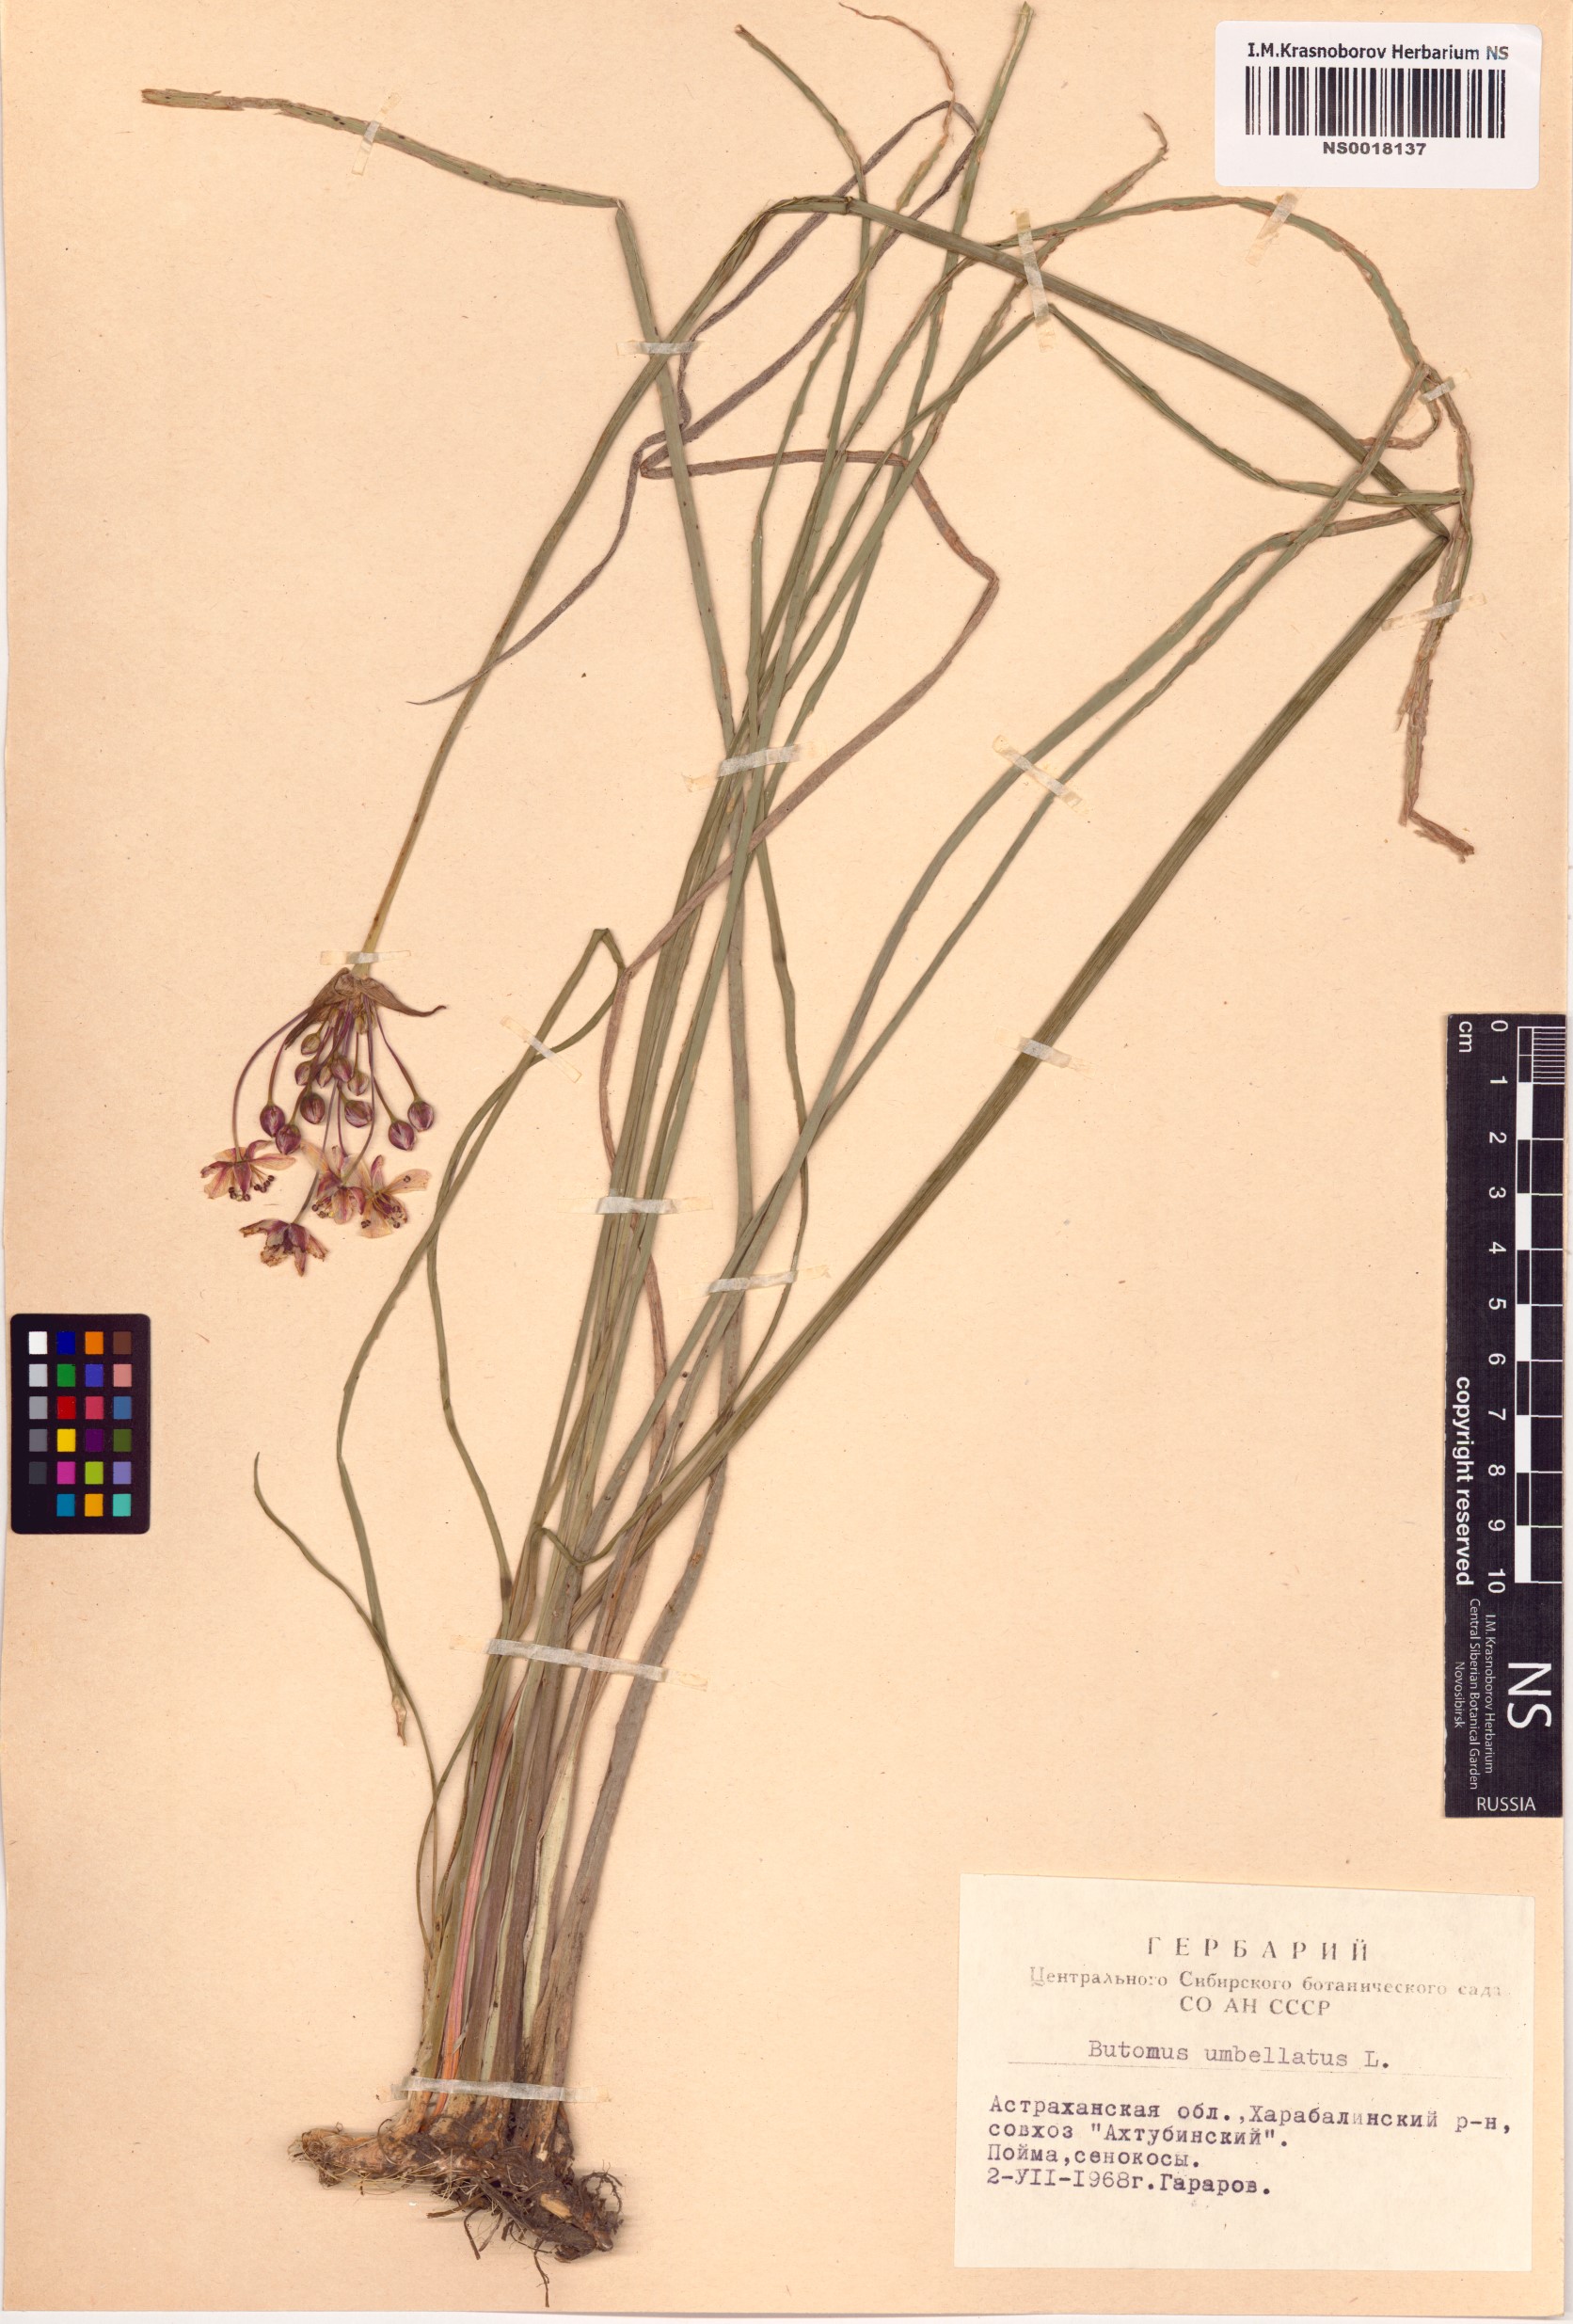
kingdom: Plantae
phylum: Tracheophyta
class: Liliopsida
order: Alismatales
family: Butomaceae
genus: Butomus
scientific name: Butomus umbellatus
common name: Flowering-rush
